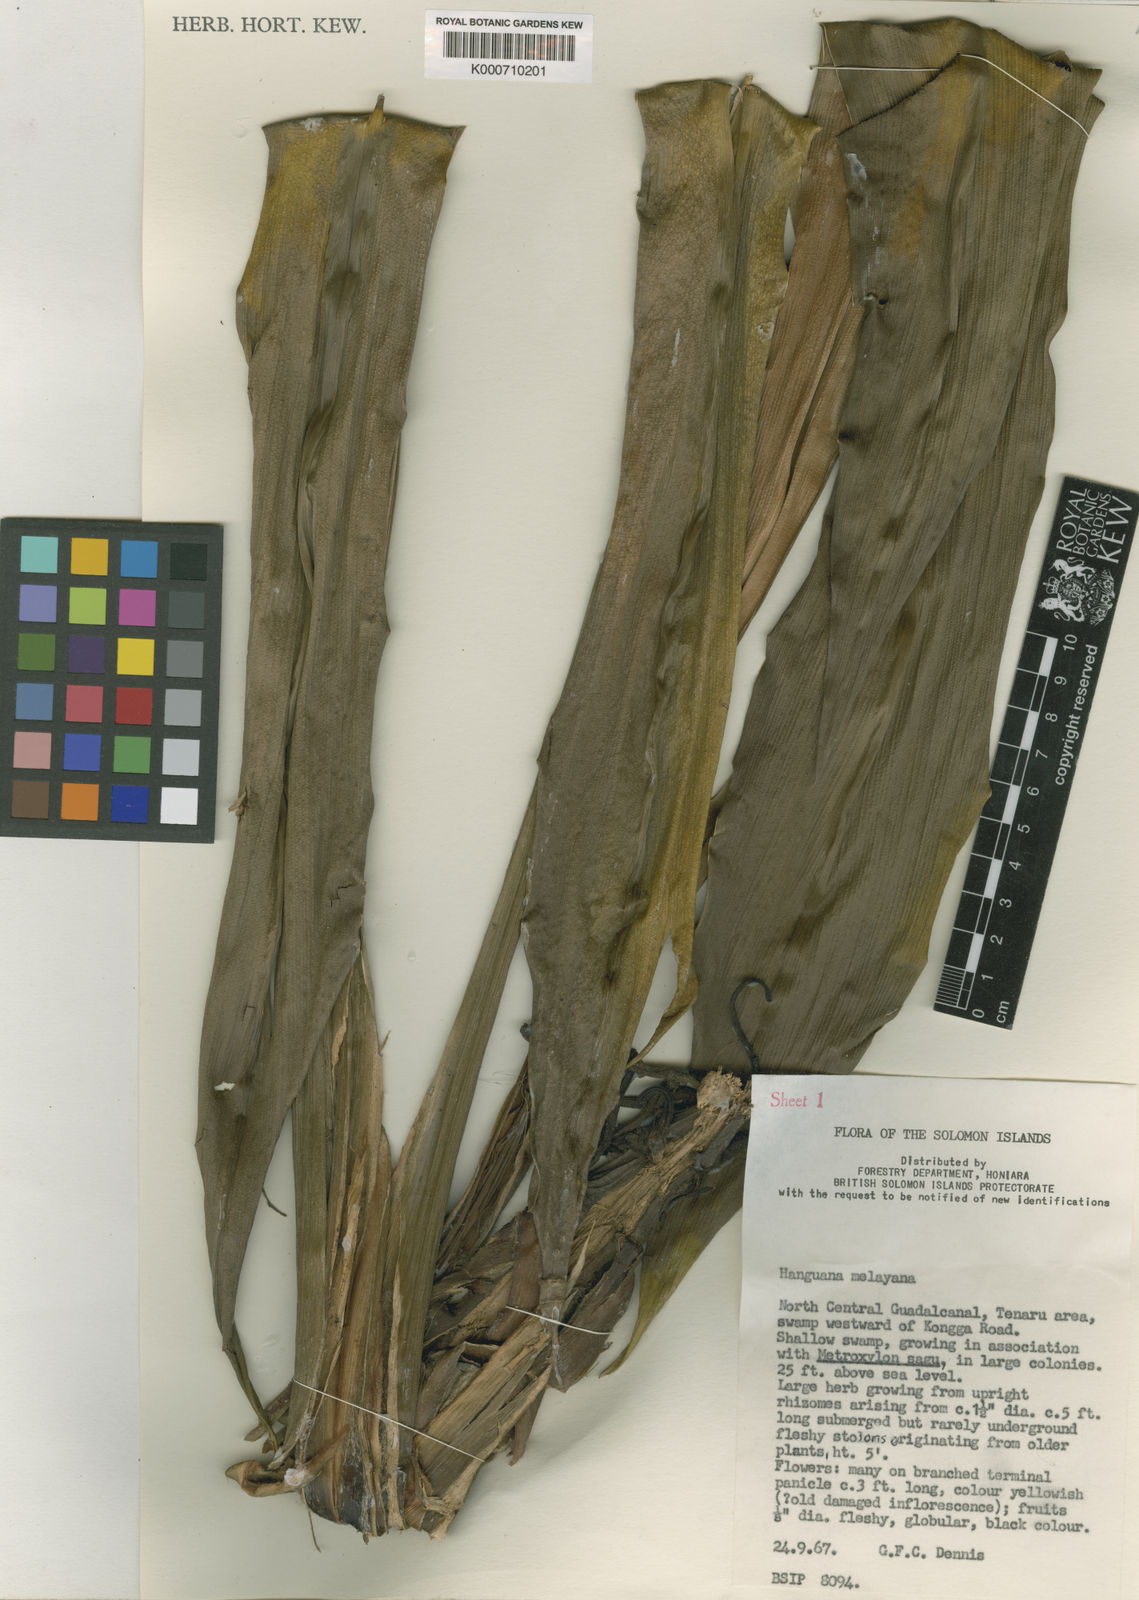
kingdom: Plantae
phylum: Tracheophyta
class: Liliopsida
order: Commelinales
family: Hanguanaceae
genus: Hanguana
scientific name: Hanguana malayana
